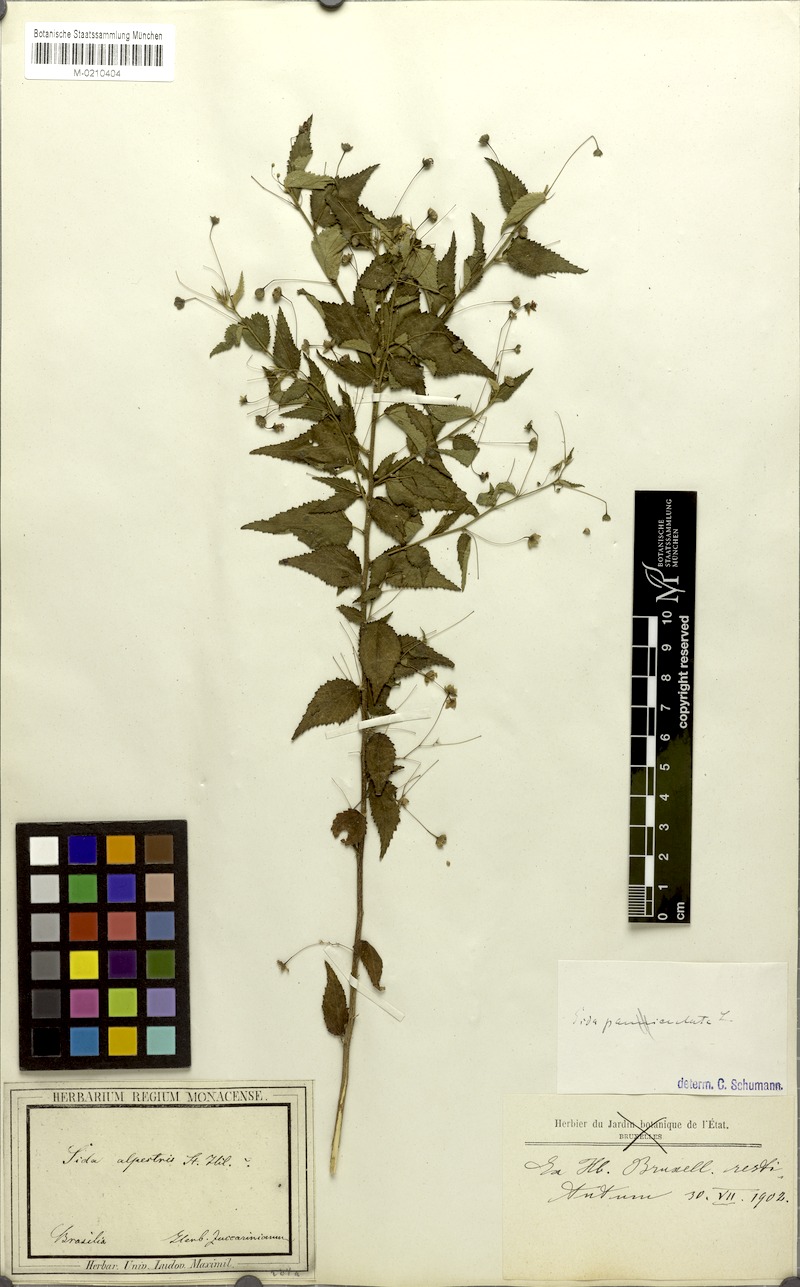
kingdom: Plantae
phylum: Tracheophyta
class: Magnoliopsida
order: Malvales
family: Malvaceae
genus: Sidastrum
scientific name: Sidastrum paniculatum
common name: Panicled sandmallow
